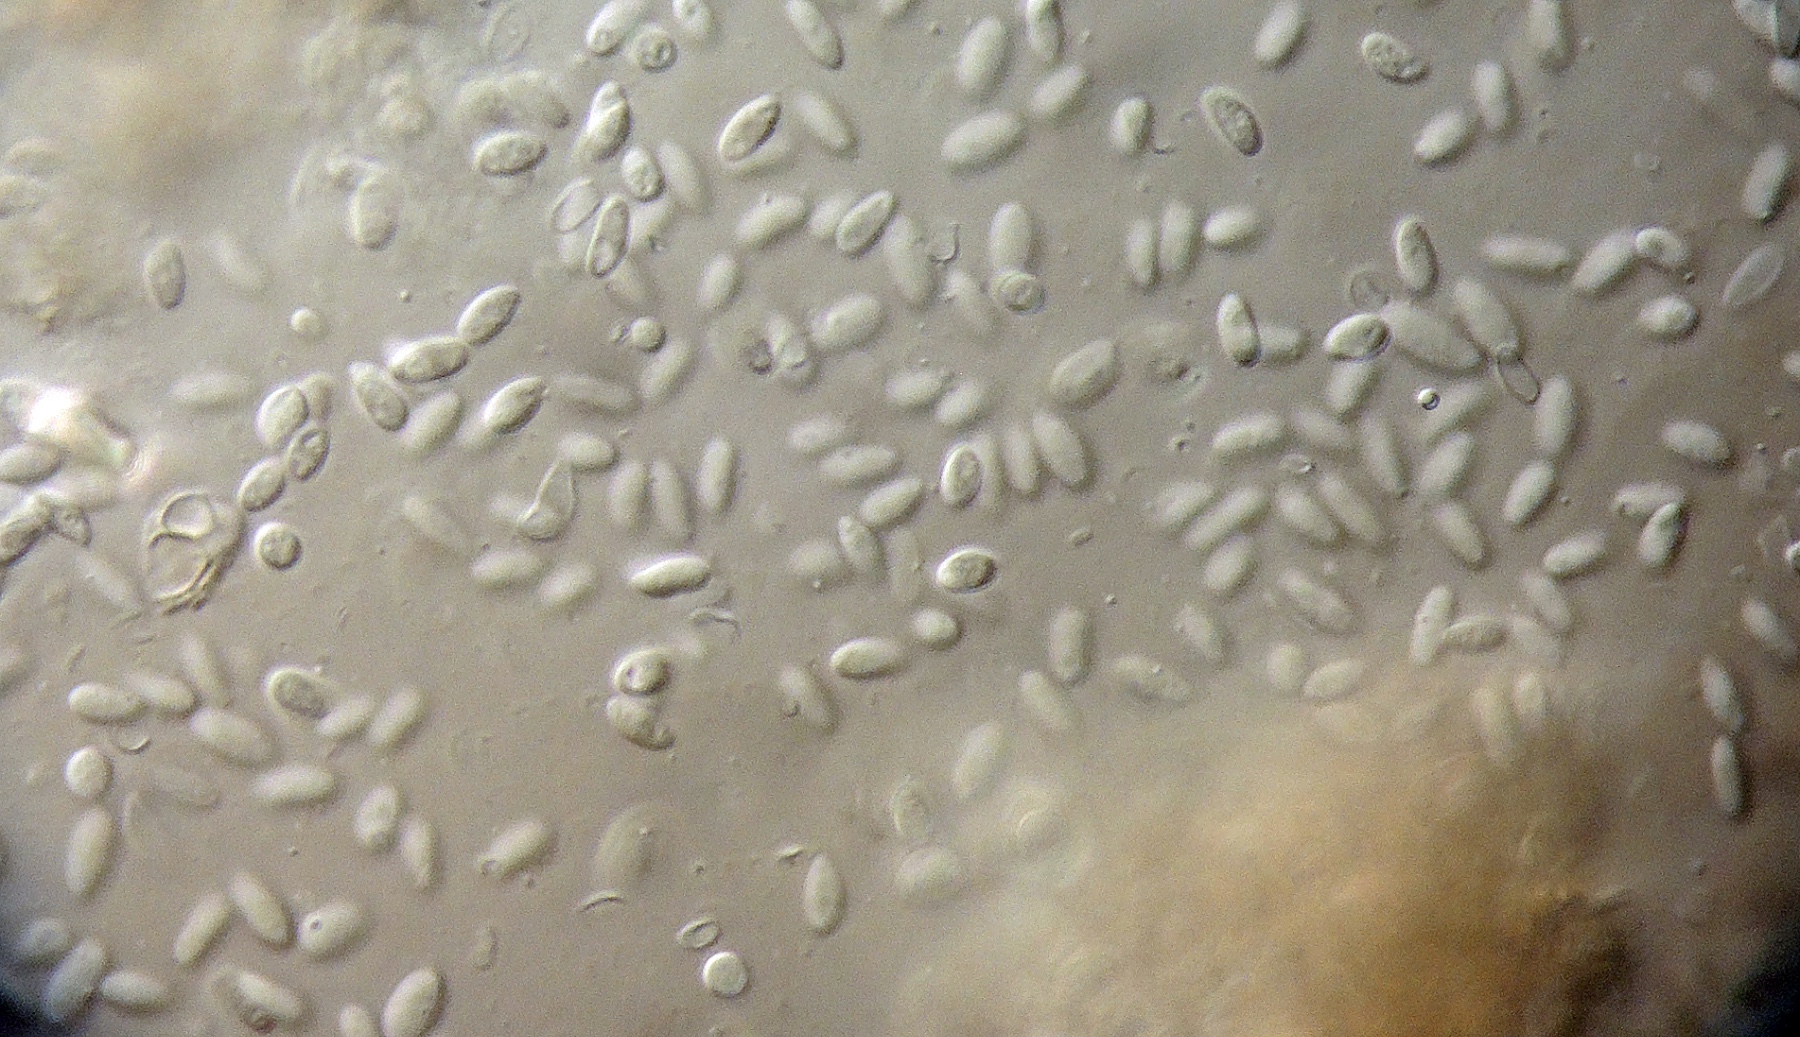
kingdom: Fungi
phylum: Ascomycota
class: Dothideomycetes
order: Dothideales
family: Dothioraceae
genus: Sydowia
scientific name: Sydowia polyspora
